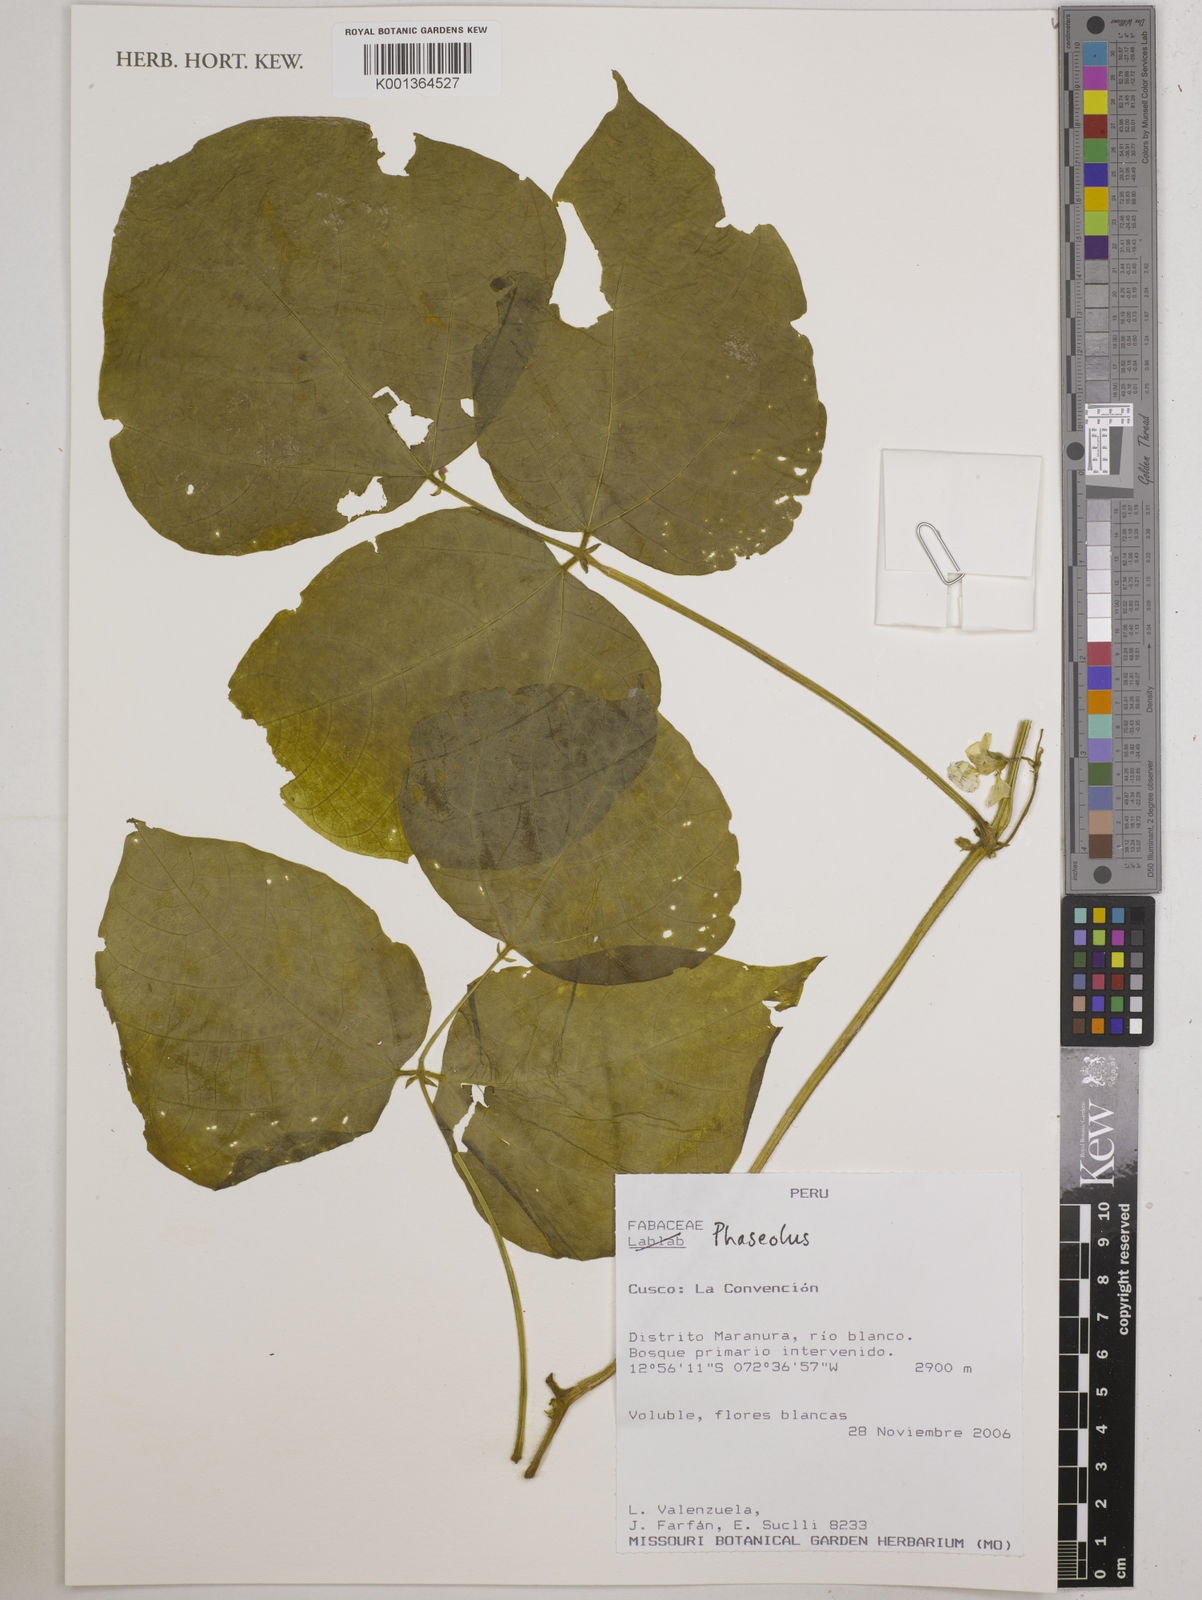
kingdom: Plantae
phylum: Tracheophyta
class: Magnoliopsida
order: Fabales
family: Fabaceae
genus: Phaseolus
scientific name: Phaseolus
